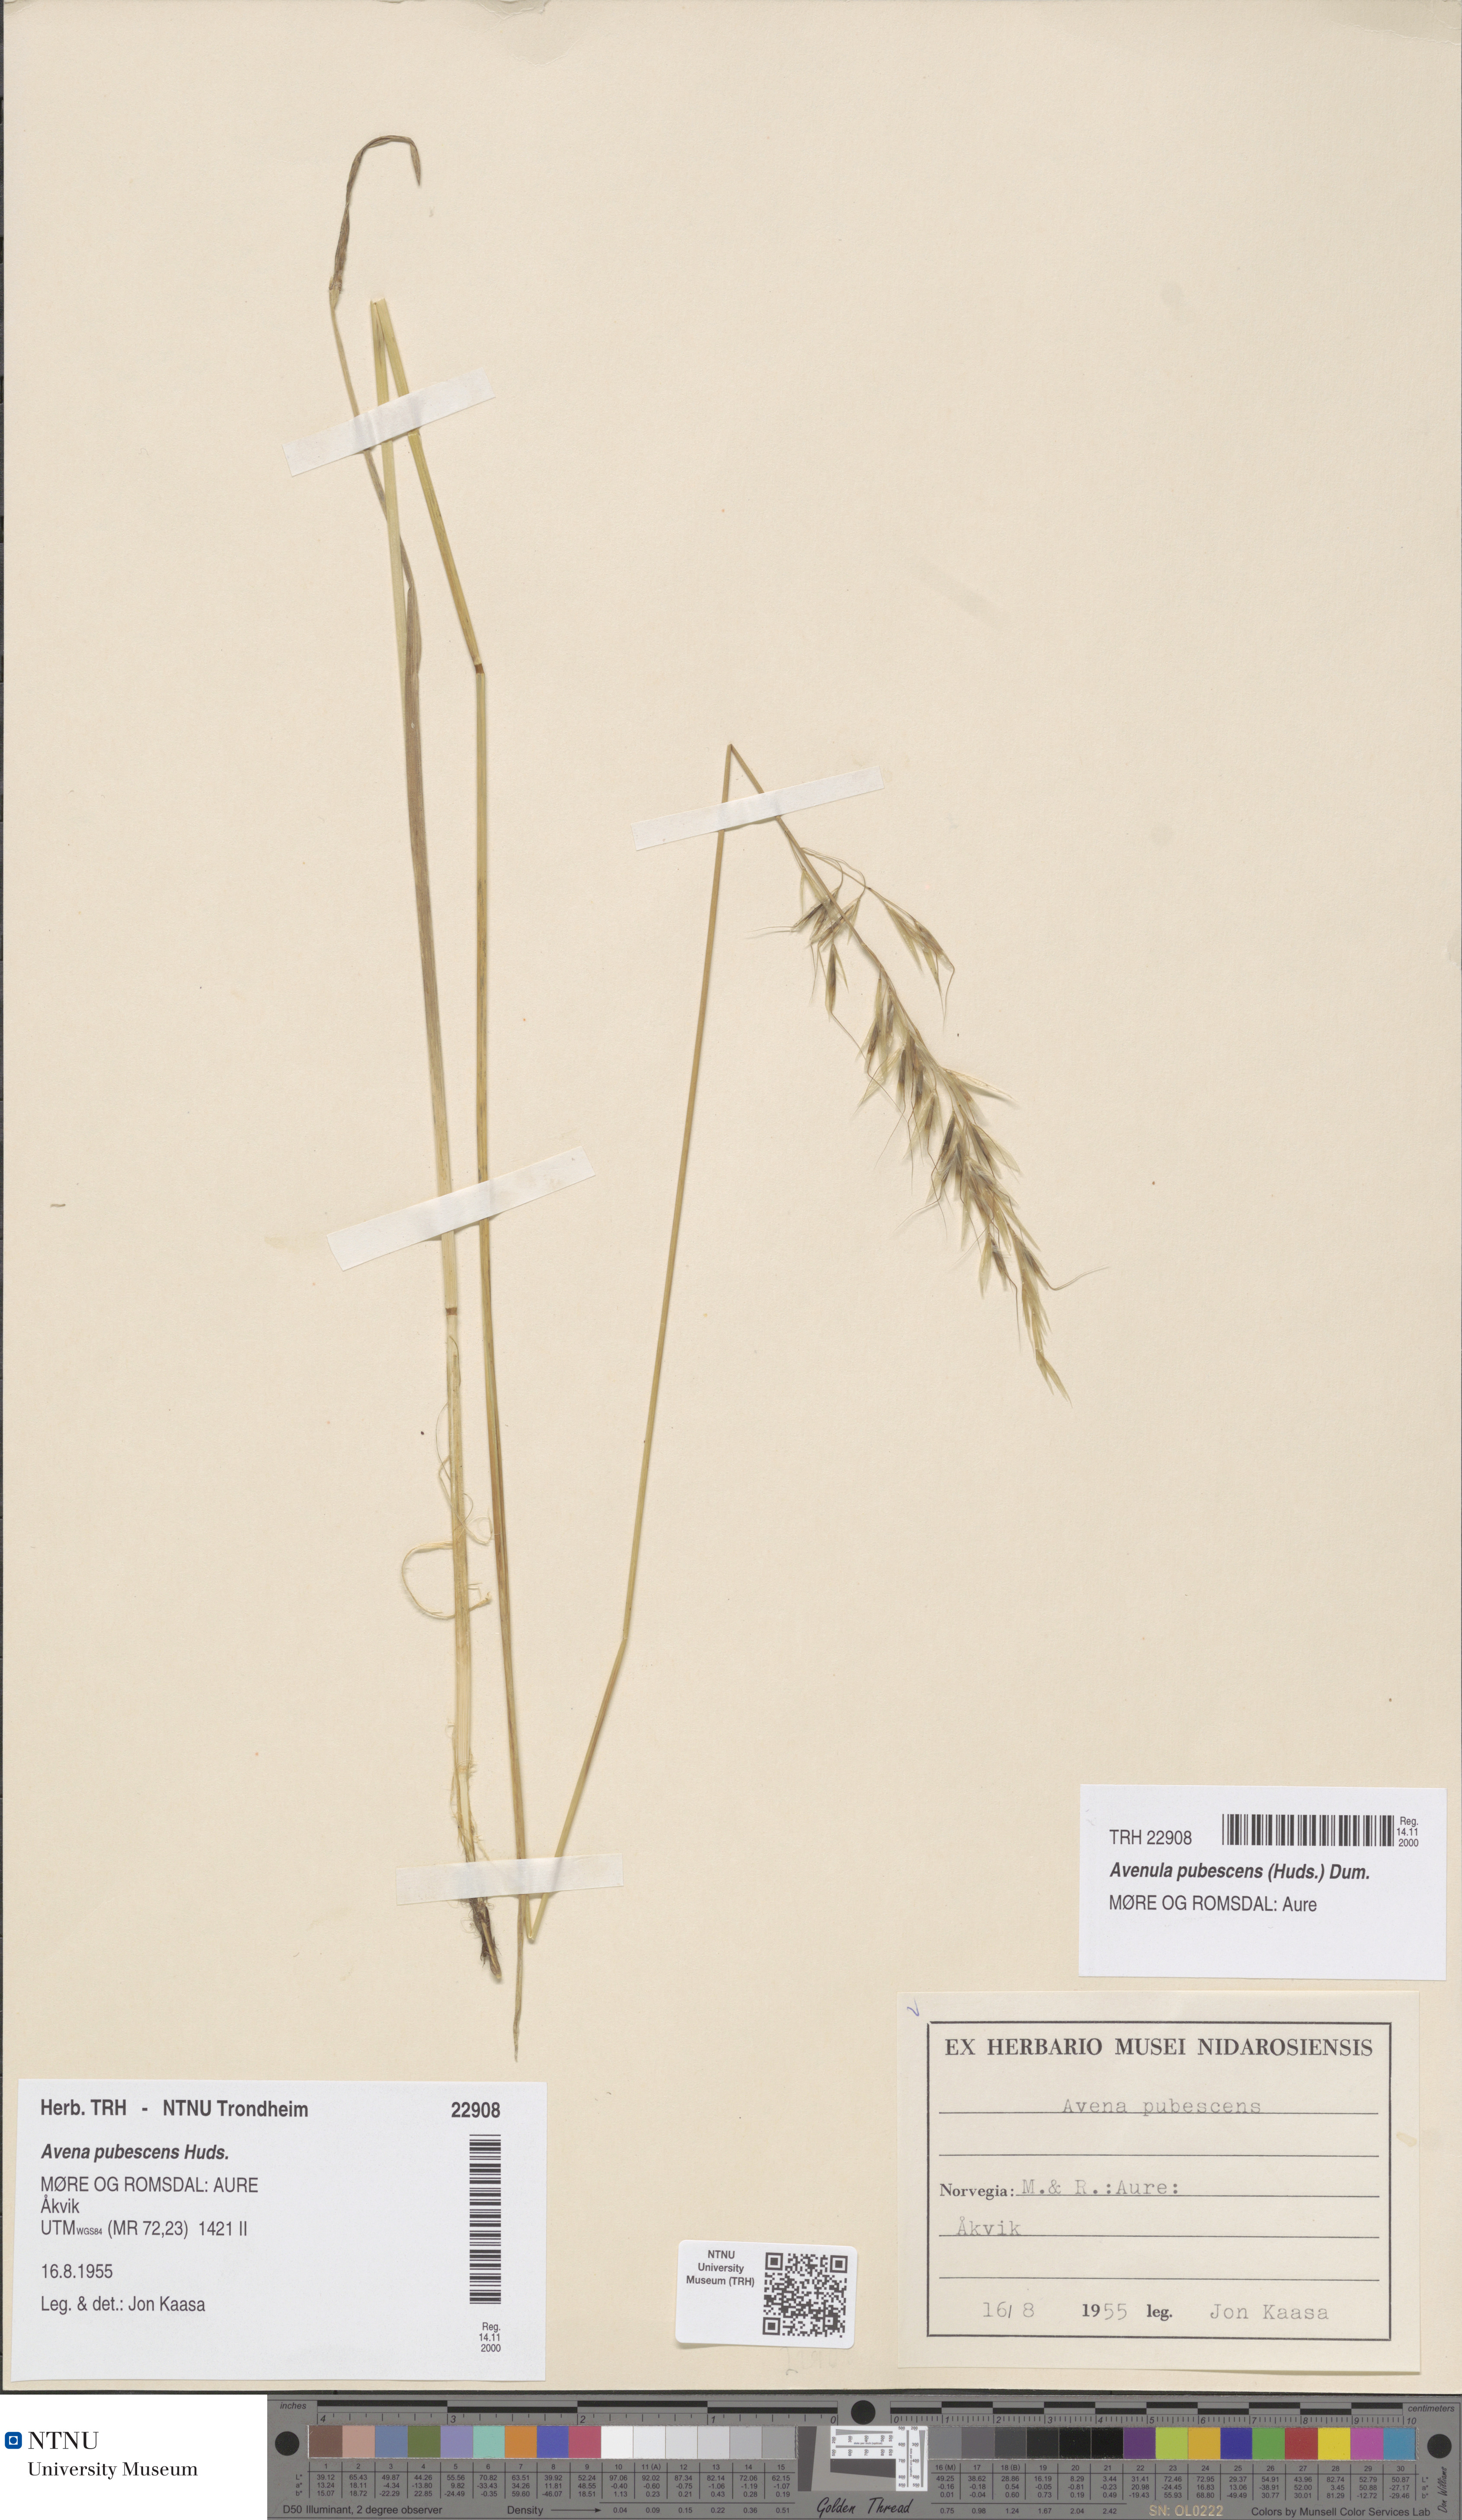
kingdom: Plantae
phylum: Tracheophyta
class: Liliopsida
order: Poales
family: Poaceae
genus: Avenula
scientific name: Avenula pubescens
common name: Downy alpine oatgrass
